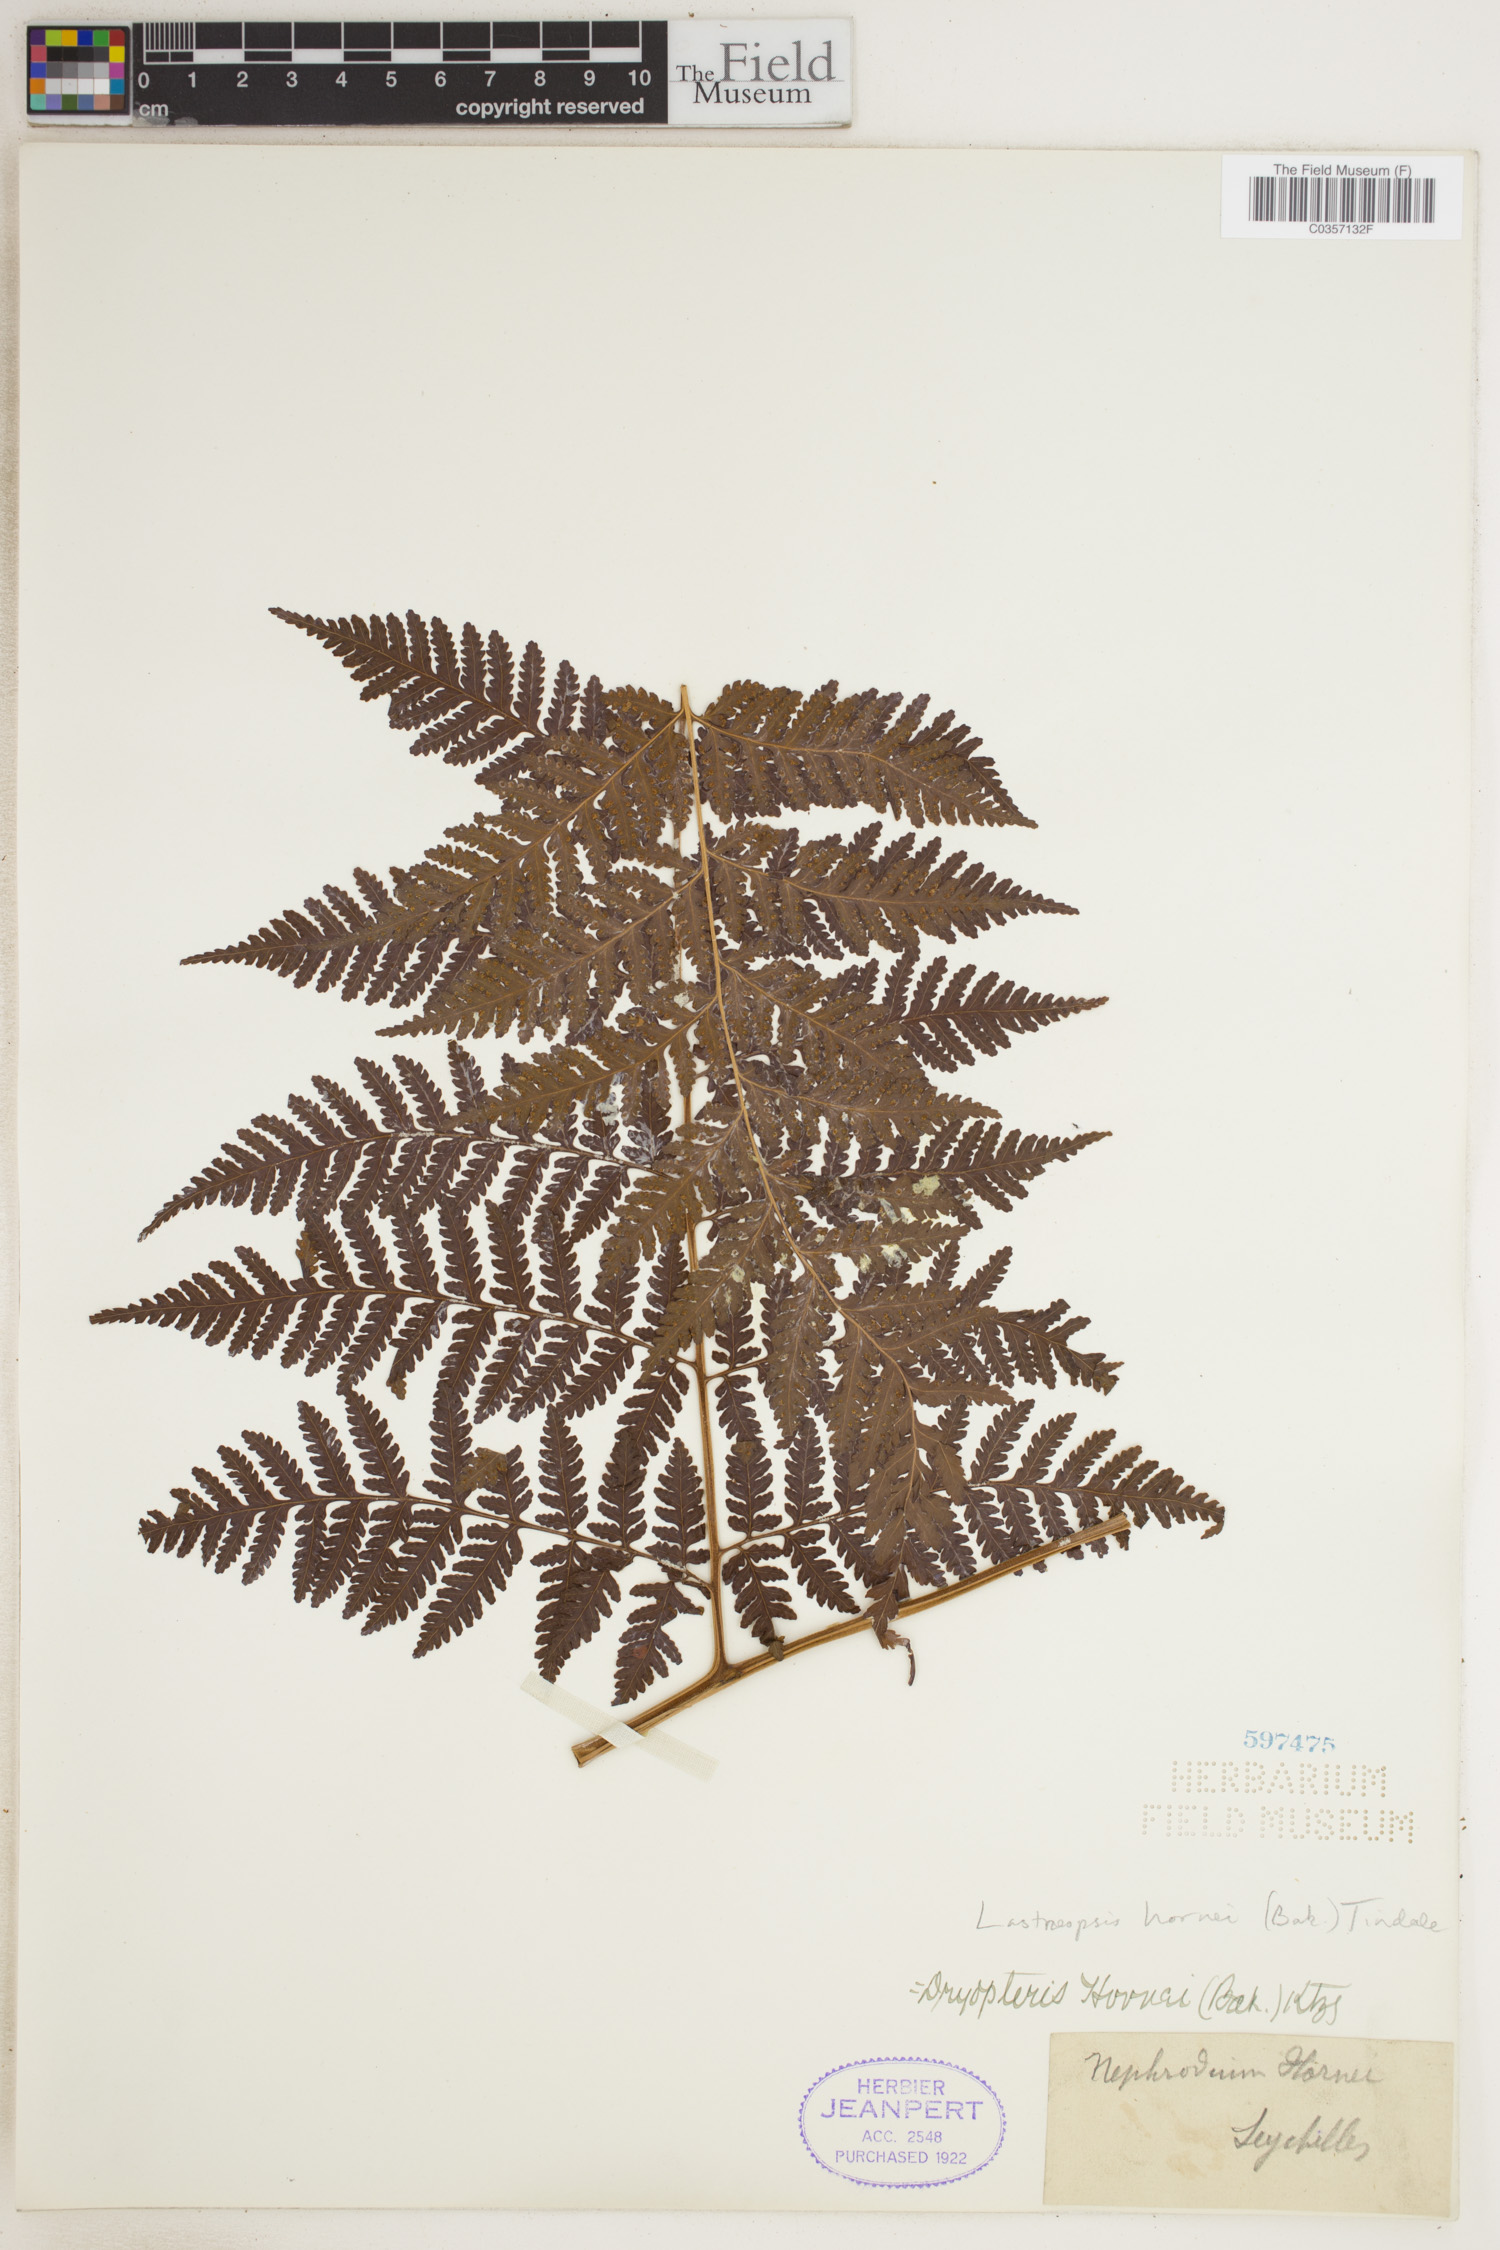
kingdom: Plantae
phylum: Tracheophyta
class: Polypodiopsida
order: Polypodiales
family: Dryopteridaceae
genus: Parapolystichum
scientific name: Parapolystichum hornei
